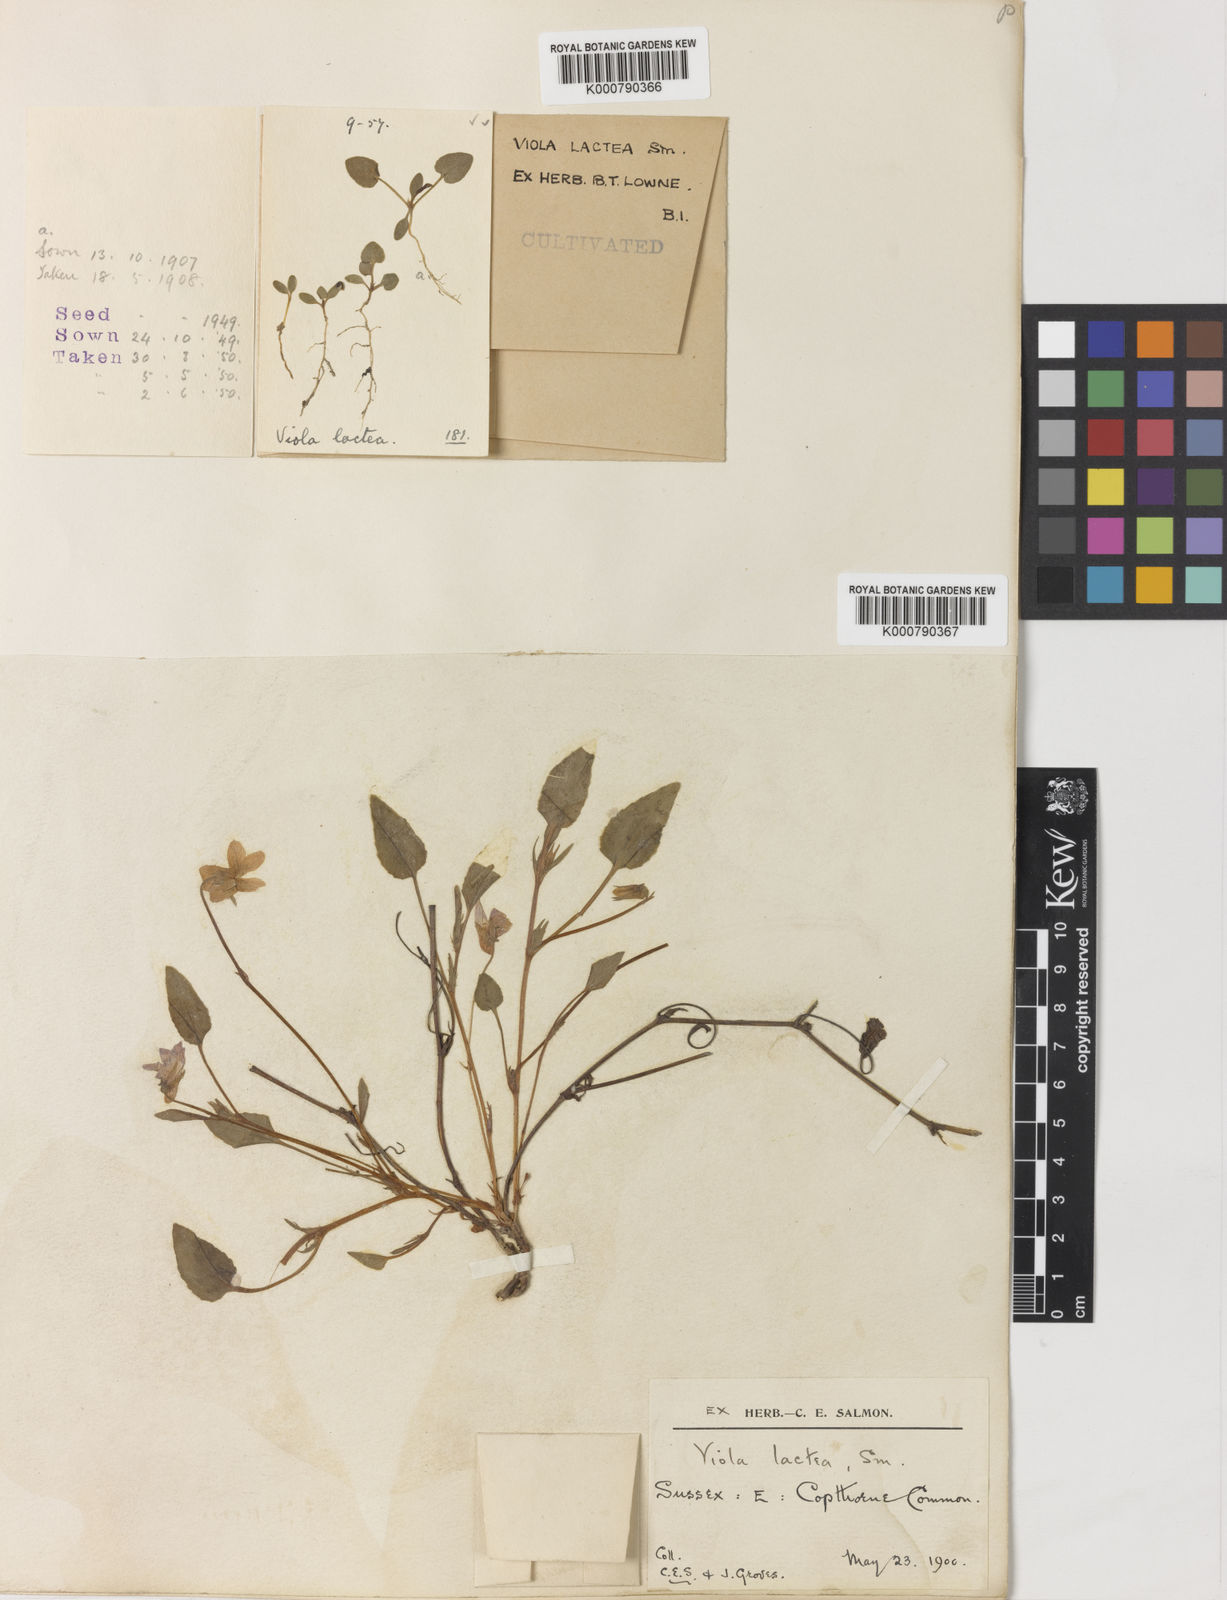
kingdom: Plantae
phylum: Tracheophyta
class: Magnoliopsida
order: Malpighiales
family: Violaceae
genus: Viola
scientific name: Viola lactea
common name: Pale dog-violet
